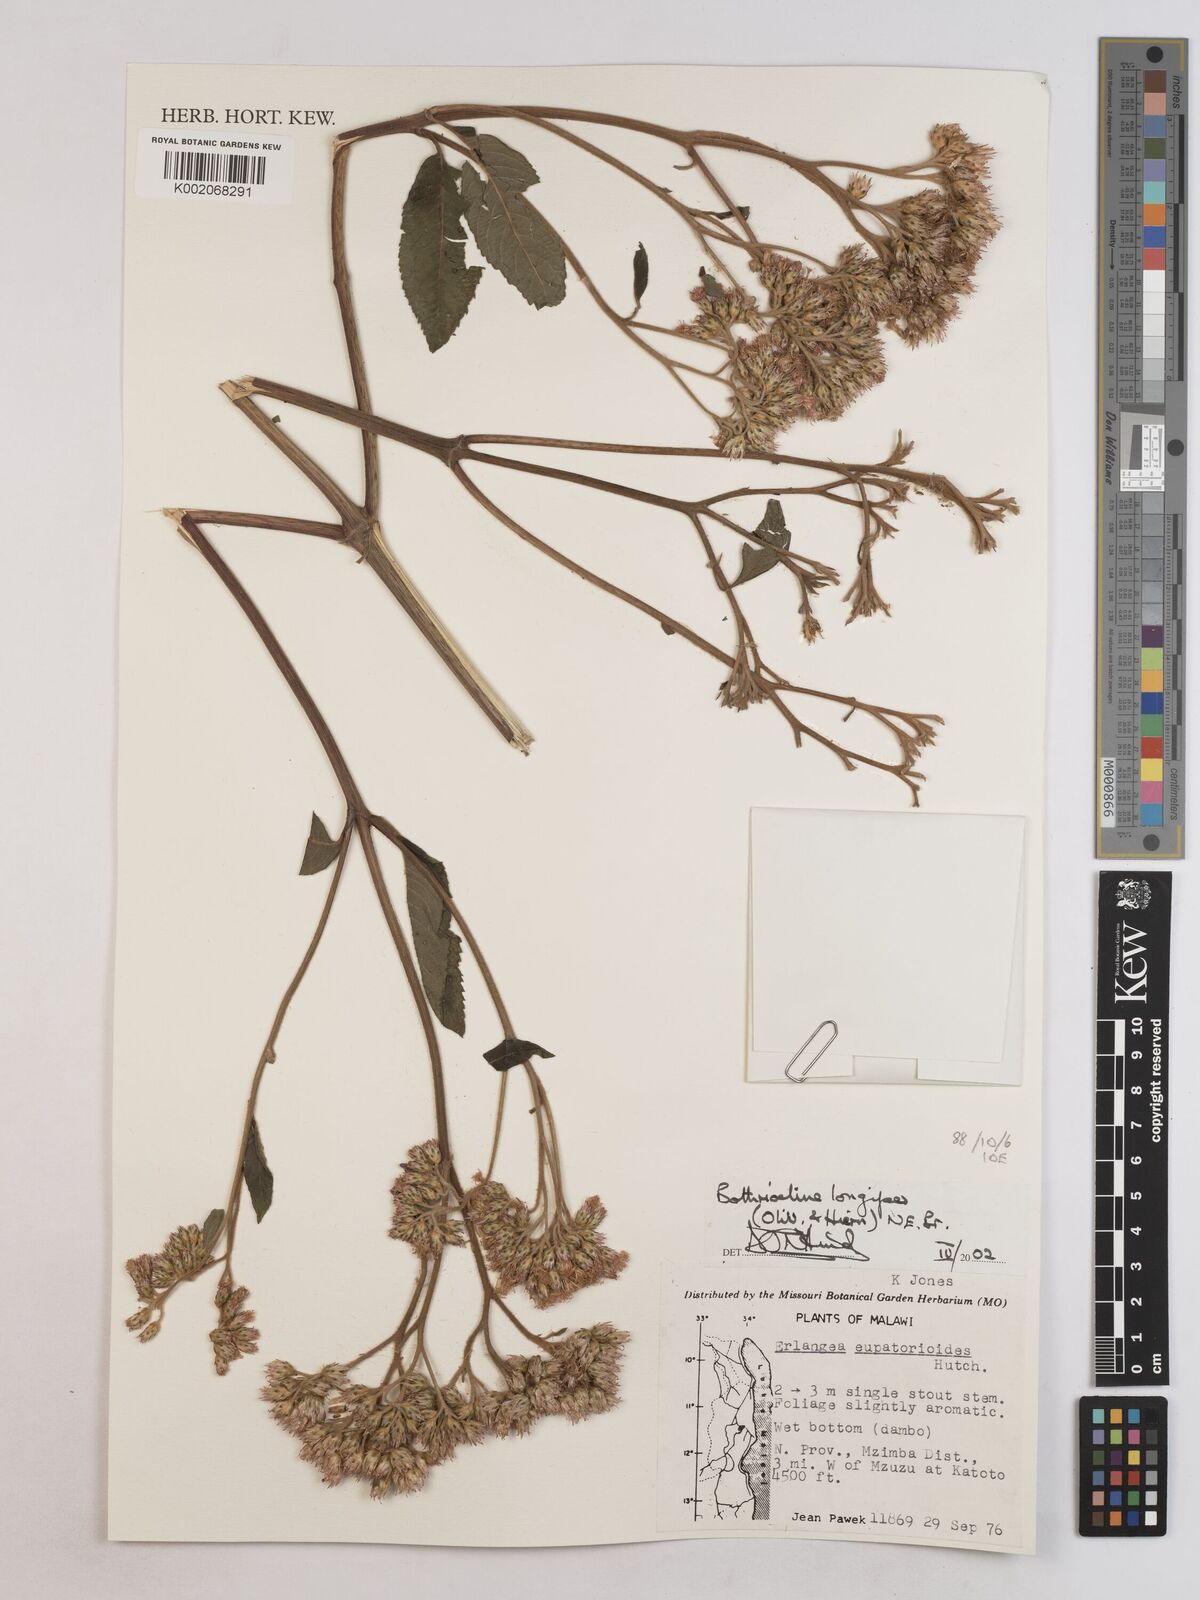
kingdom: Plantae
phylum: Tracheophyta
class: Magnoliopsida
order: Asterales
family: Asteraceae
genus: Bothriocline
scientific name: Bothriocline longipes
